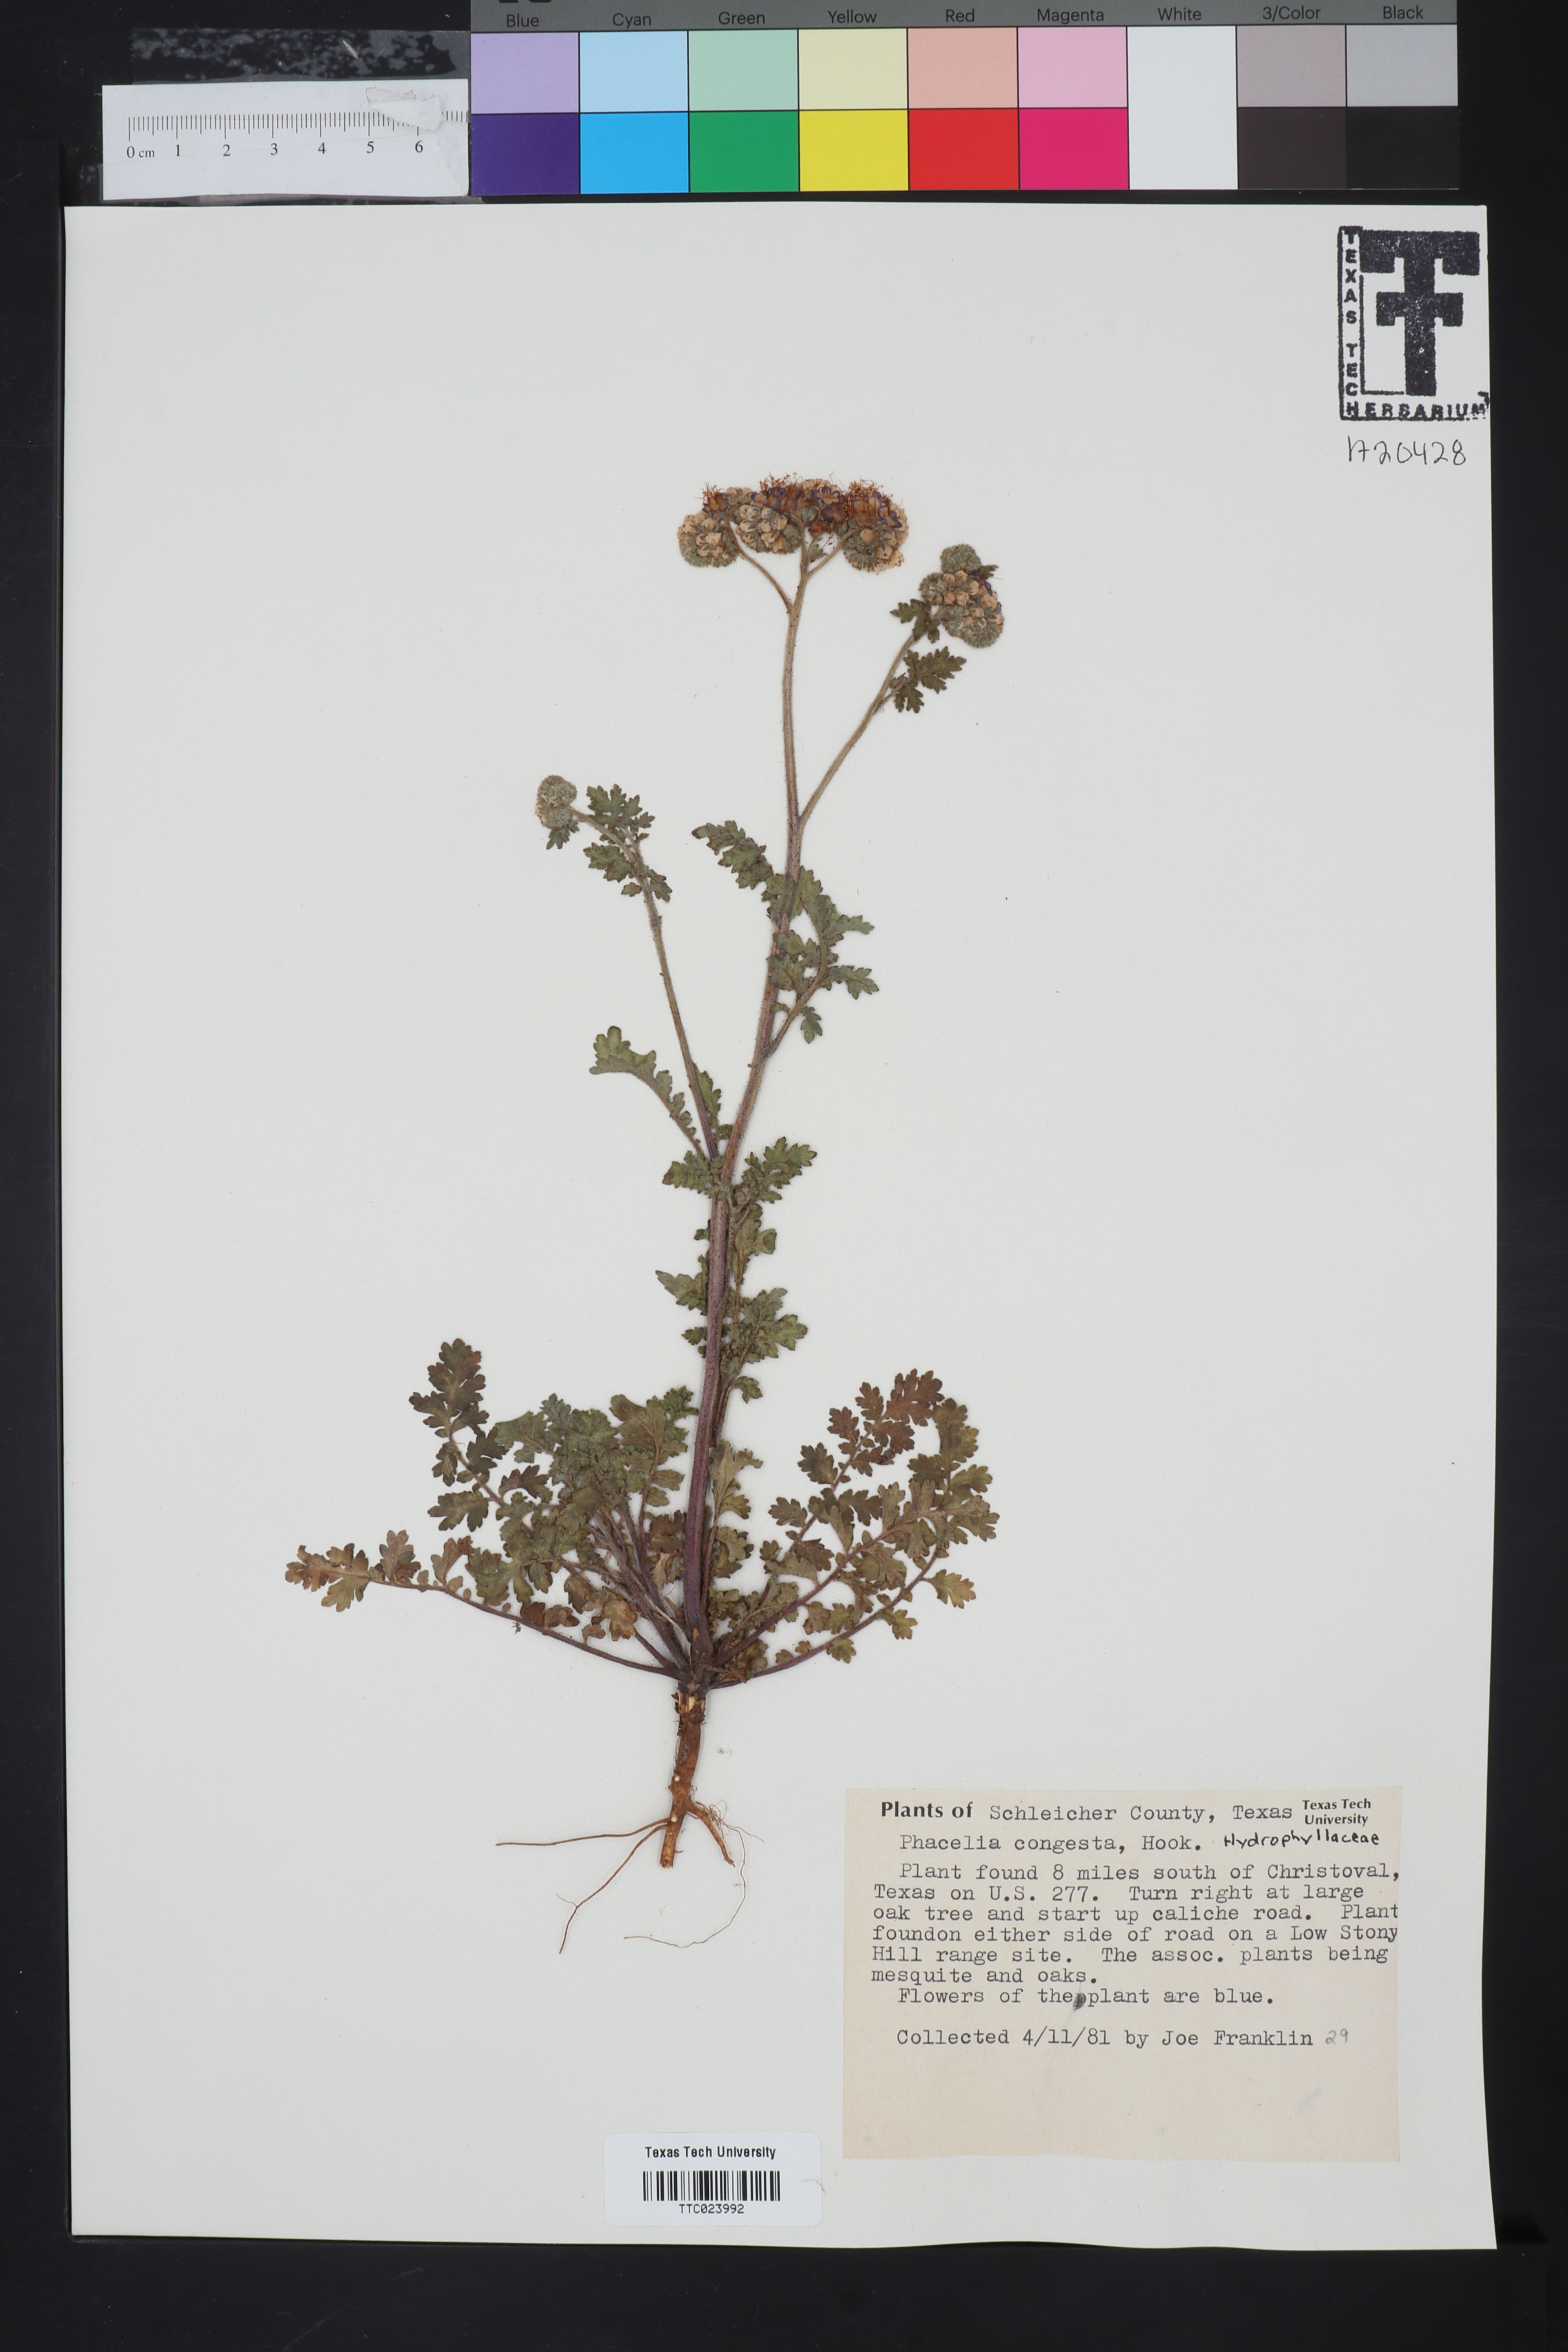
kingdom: Plantae
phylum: Tracheophyta
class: Magnoliopsida
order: Boraginales
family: Hydrophyllaceae
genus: Phacelia
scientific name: Phacelia congesta
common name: Blue curls
